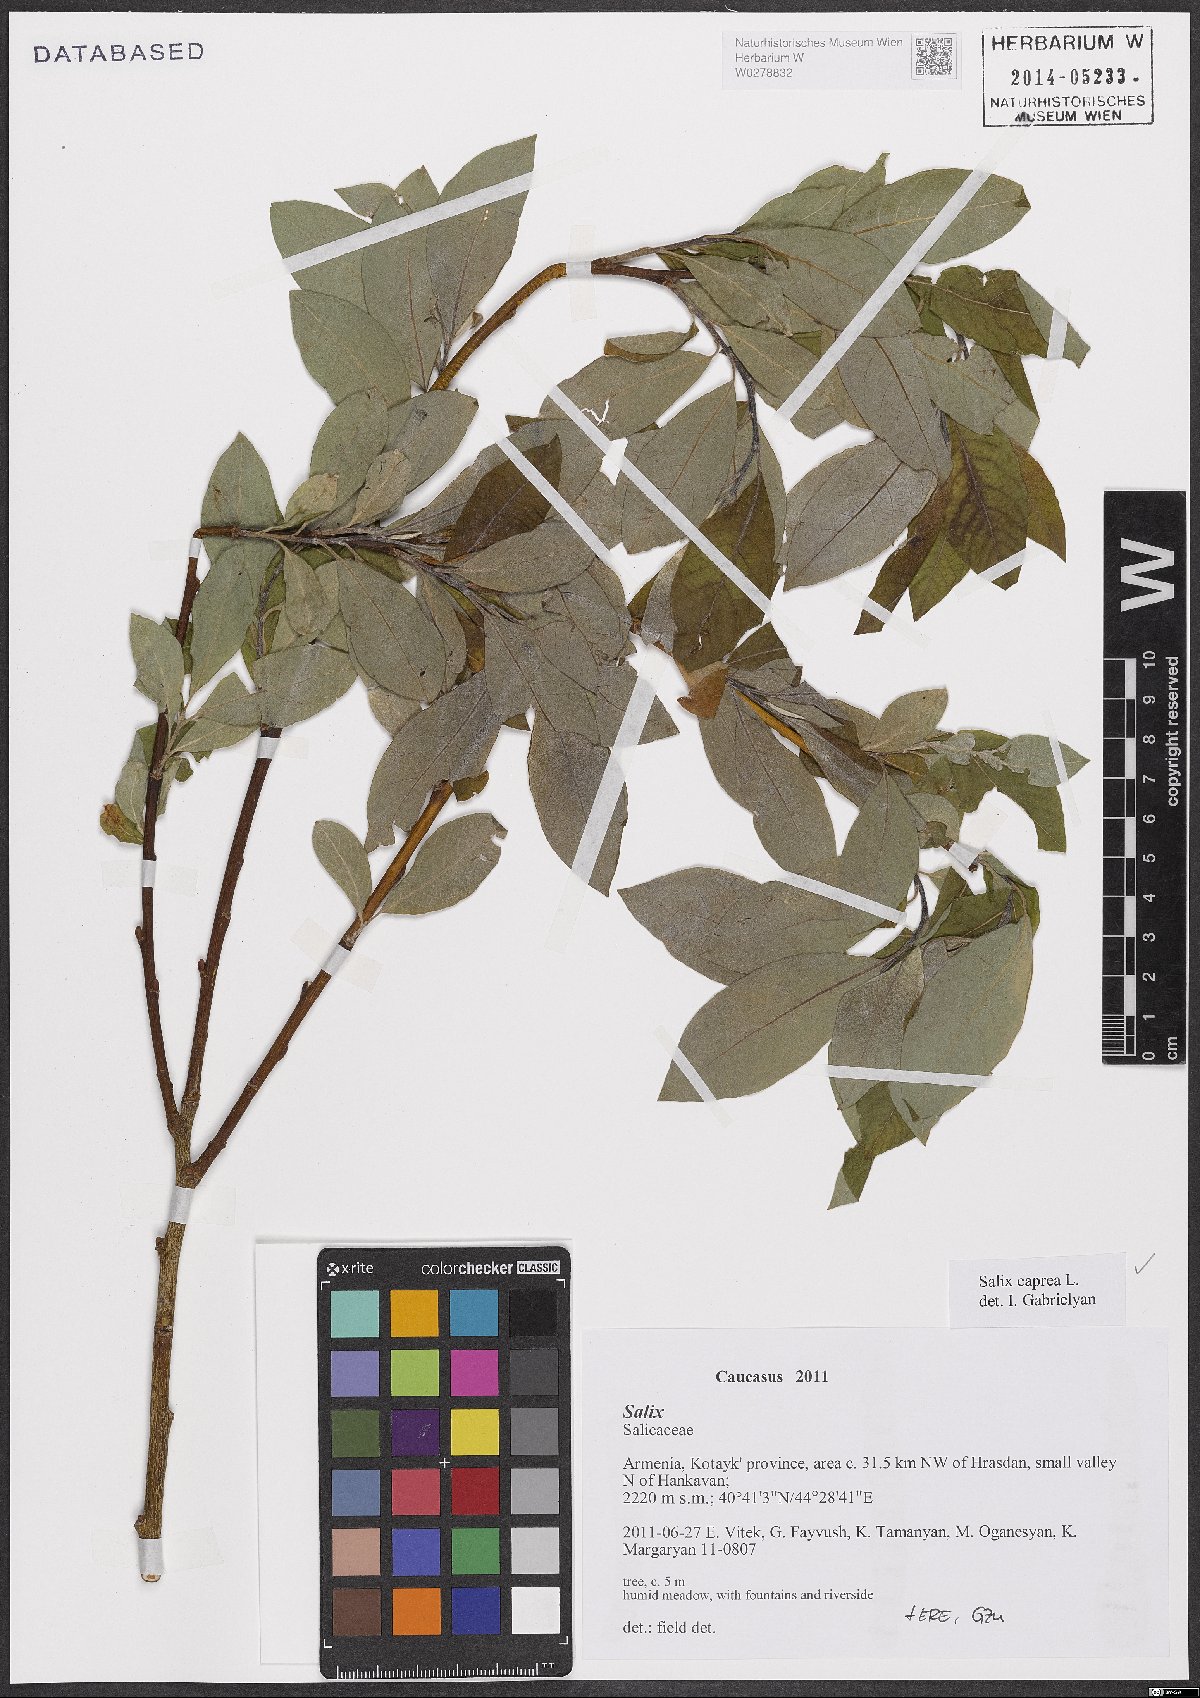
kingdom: Plantae
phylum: Tracheophyta
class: Magnoliopsida
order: Malpighiales
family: Salicaceae
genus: Salix
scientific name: Salix caprea
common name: Goat willow
